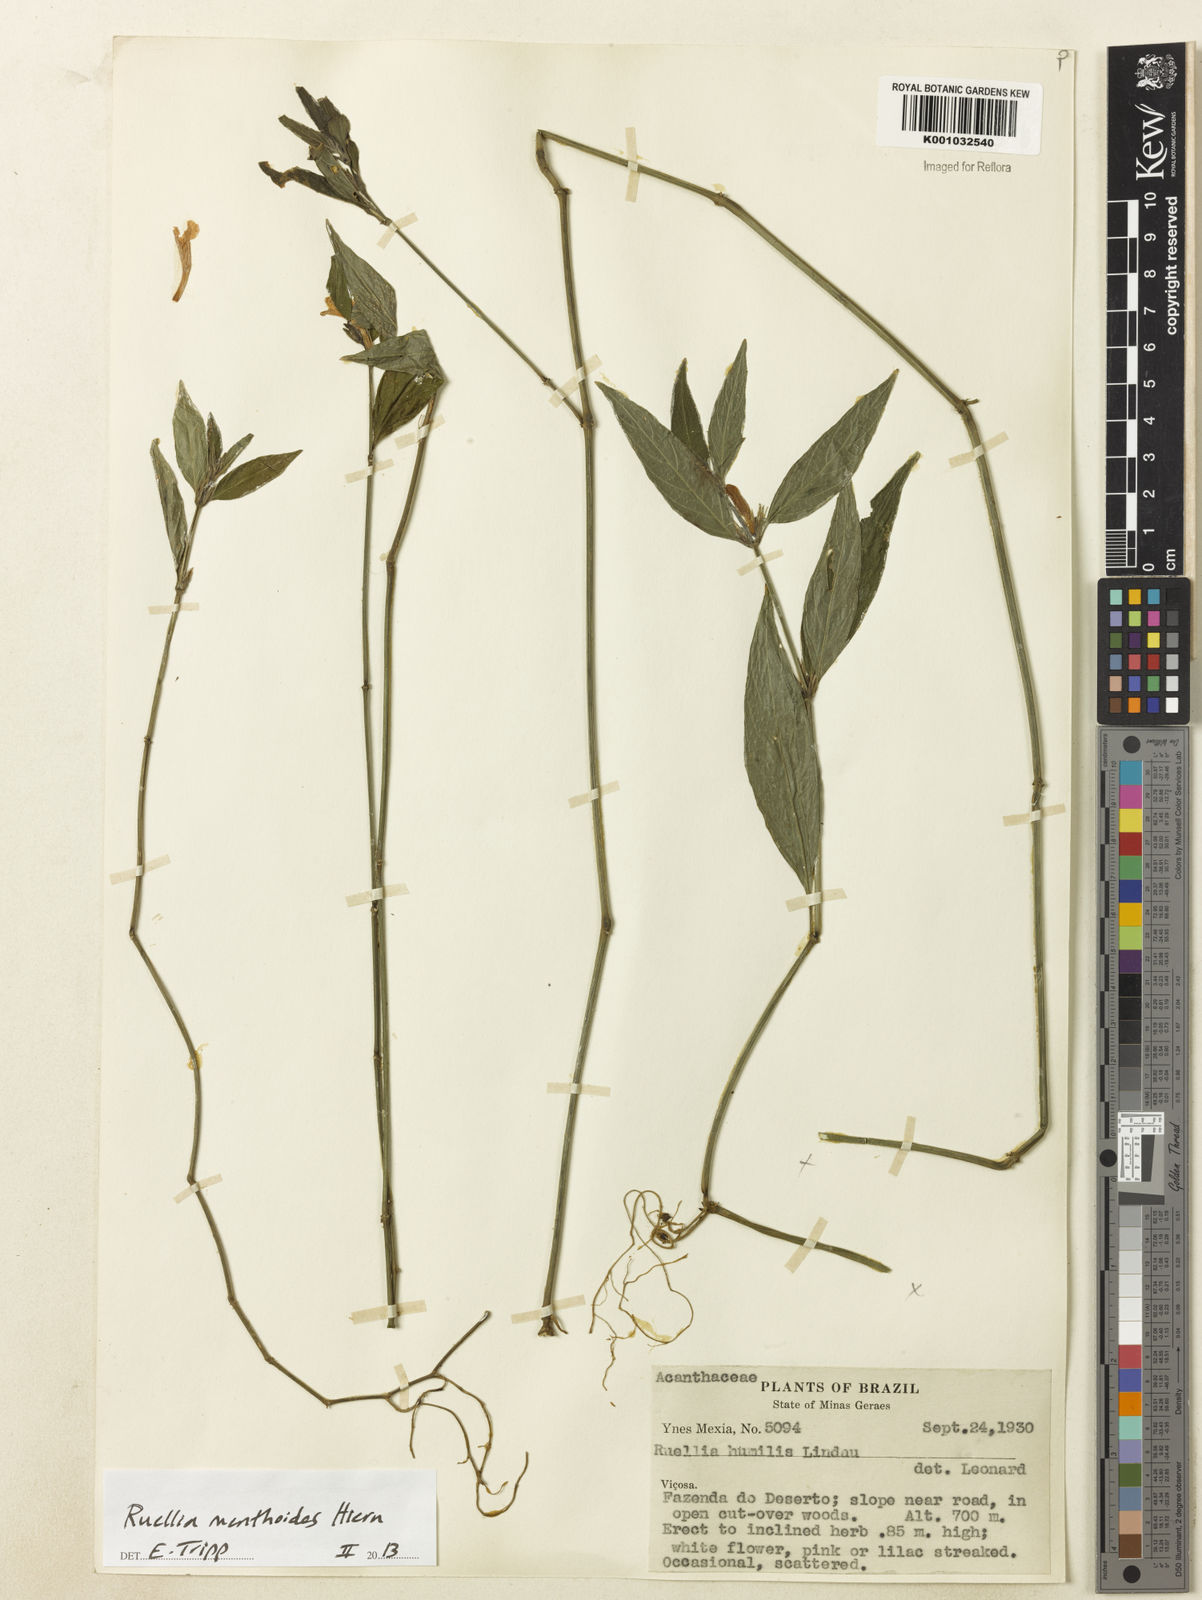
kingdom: Plantae
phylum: Tracheophyta
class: Magnoliopsida
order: Lamiales
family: Acanthaceae
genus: Ruellia
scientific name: Ruellia menthoides
